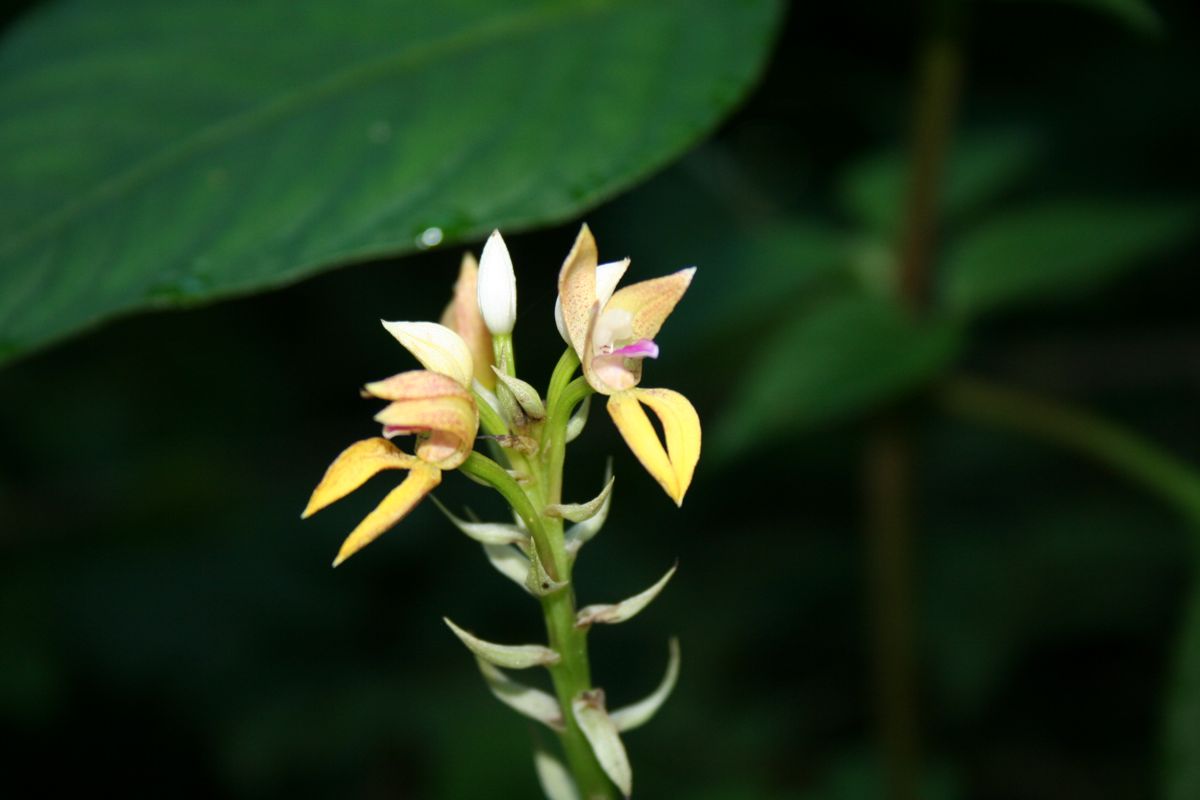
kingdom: Plantae
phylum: Tracheophyta
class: Liliopsida
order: Asparagales
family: Orchidaceae
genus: Govenia
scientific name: Govenia alba
